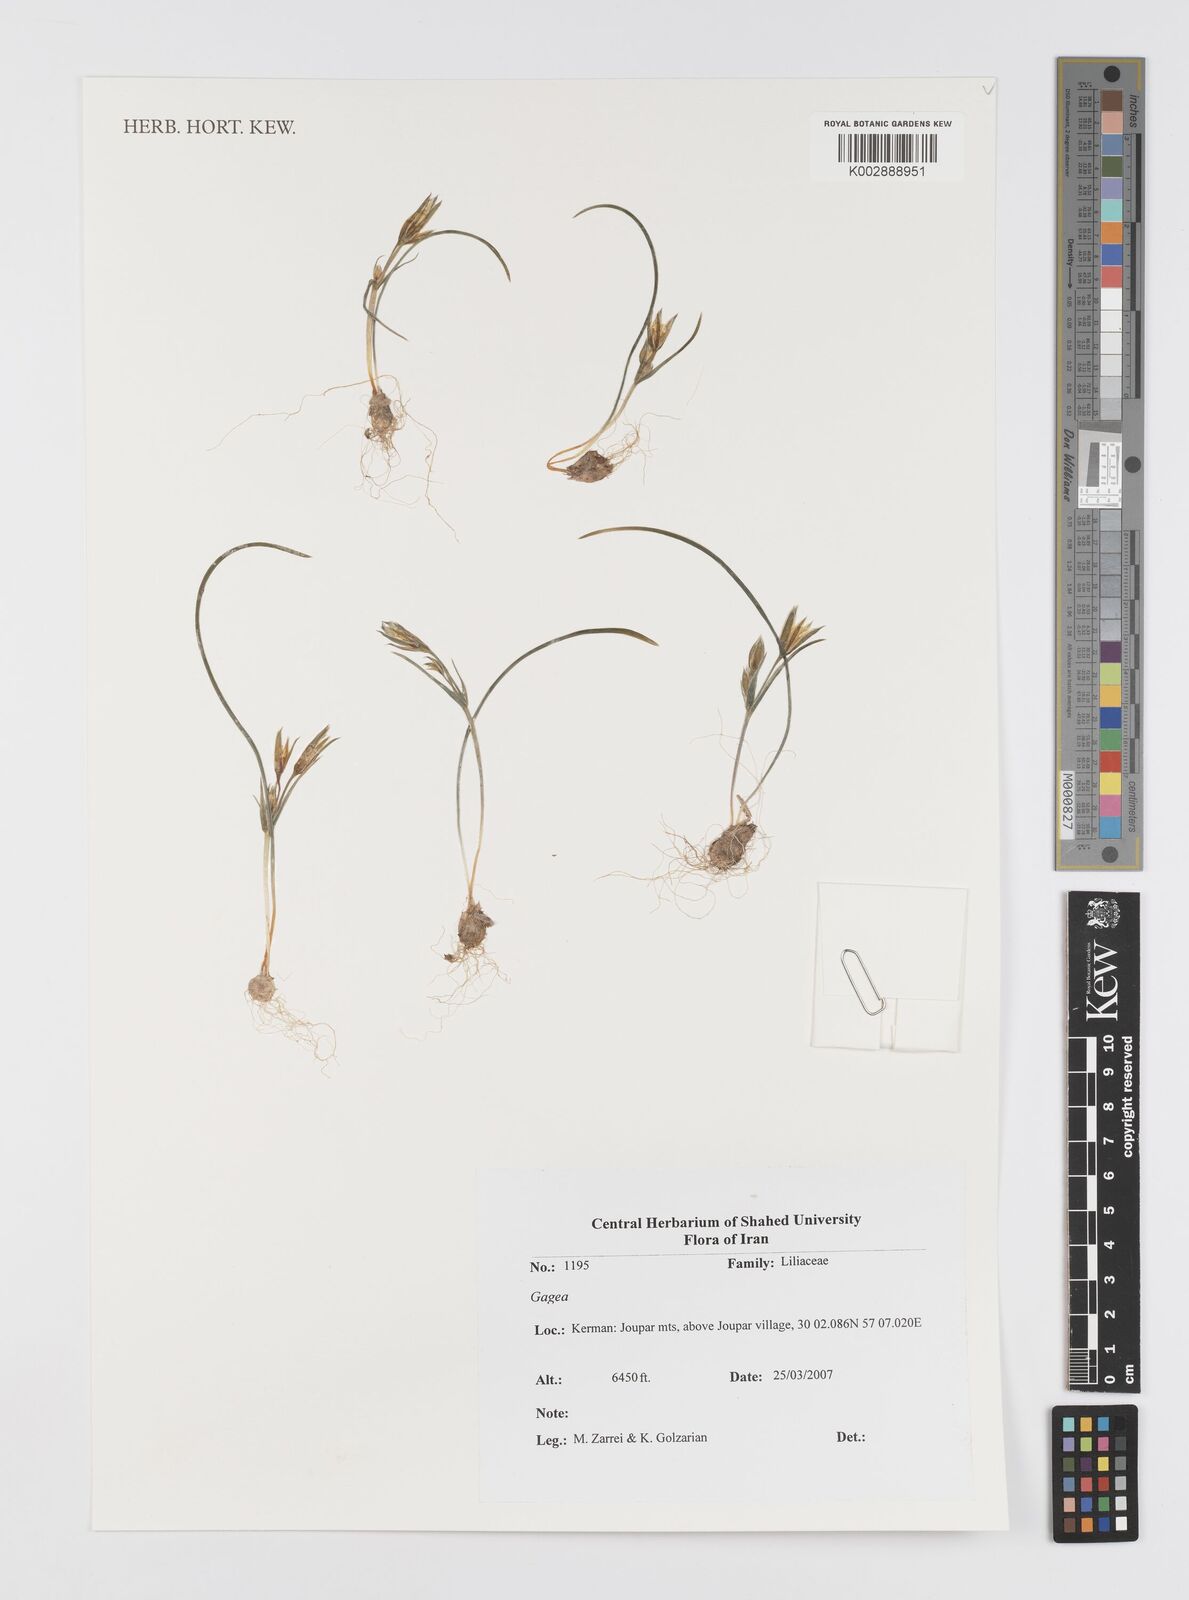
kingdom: Plantae
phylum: Tracheophyta
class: Liliopsida
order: Liliales
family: Liliaceae
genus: Gagea
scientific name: Gagea
